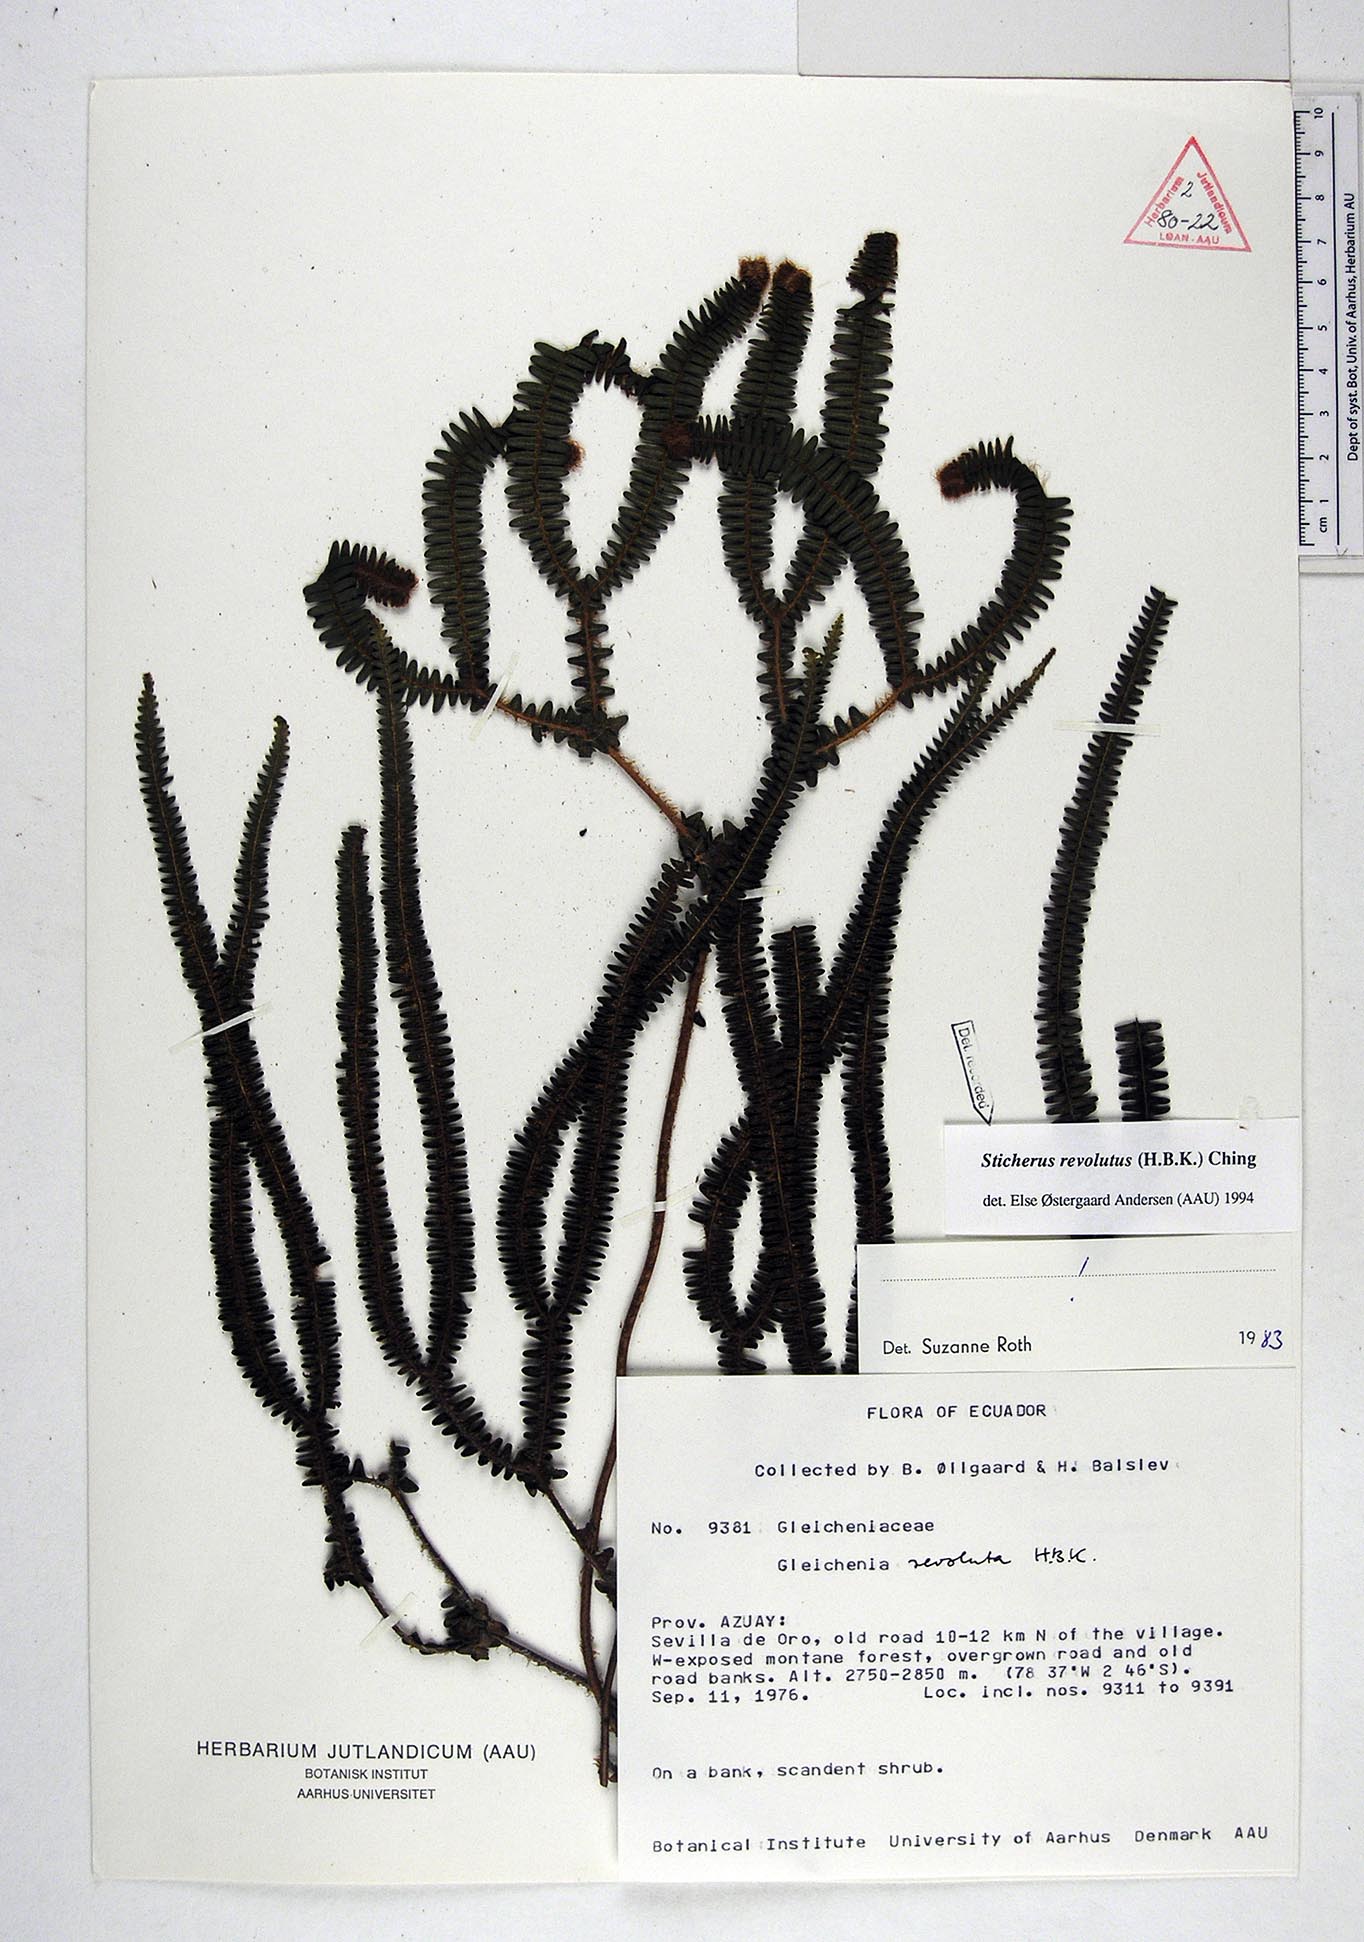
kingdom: Plantae
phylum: Tracheophyta
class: Polypodiopsida
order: Gleicheniales
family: Gleicheniaceae
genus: Sticherus
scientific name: Sticherus revolutus
